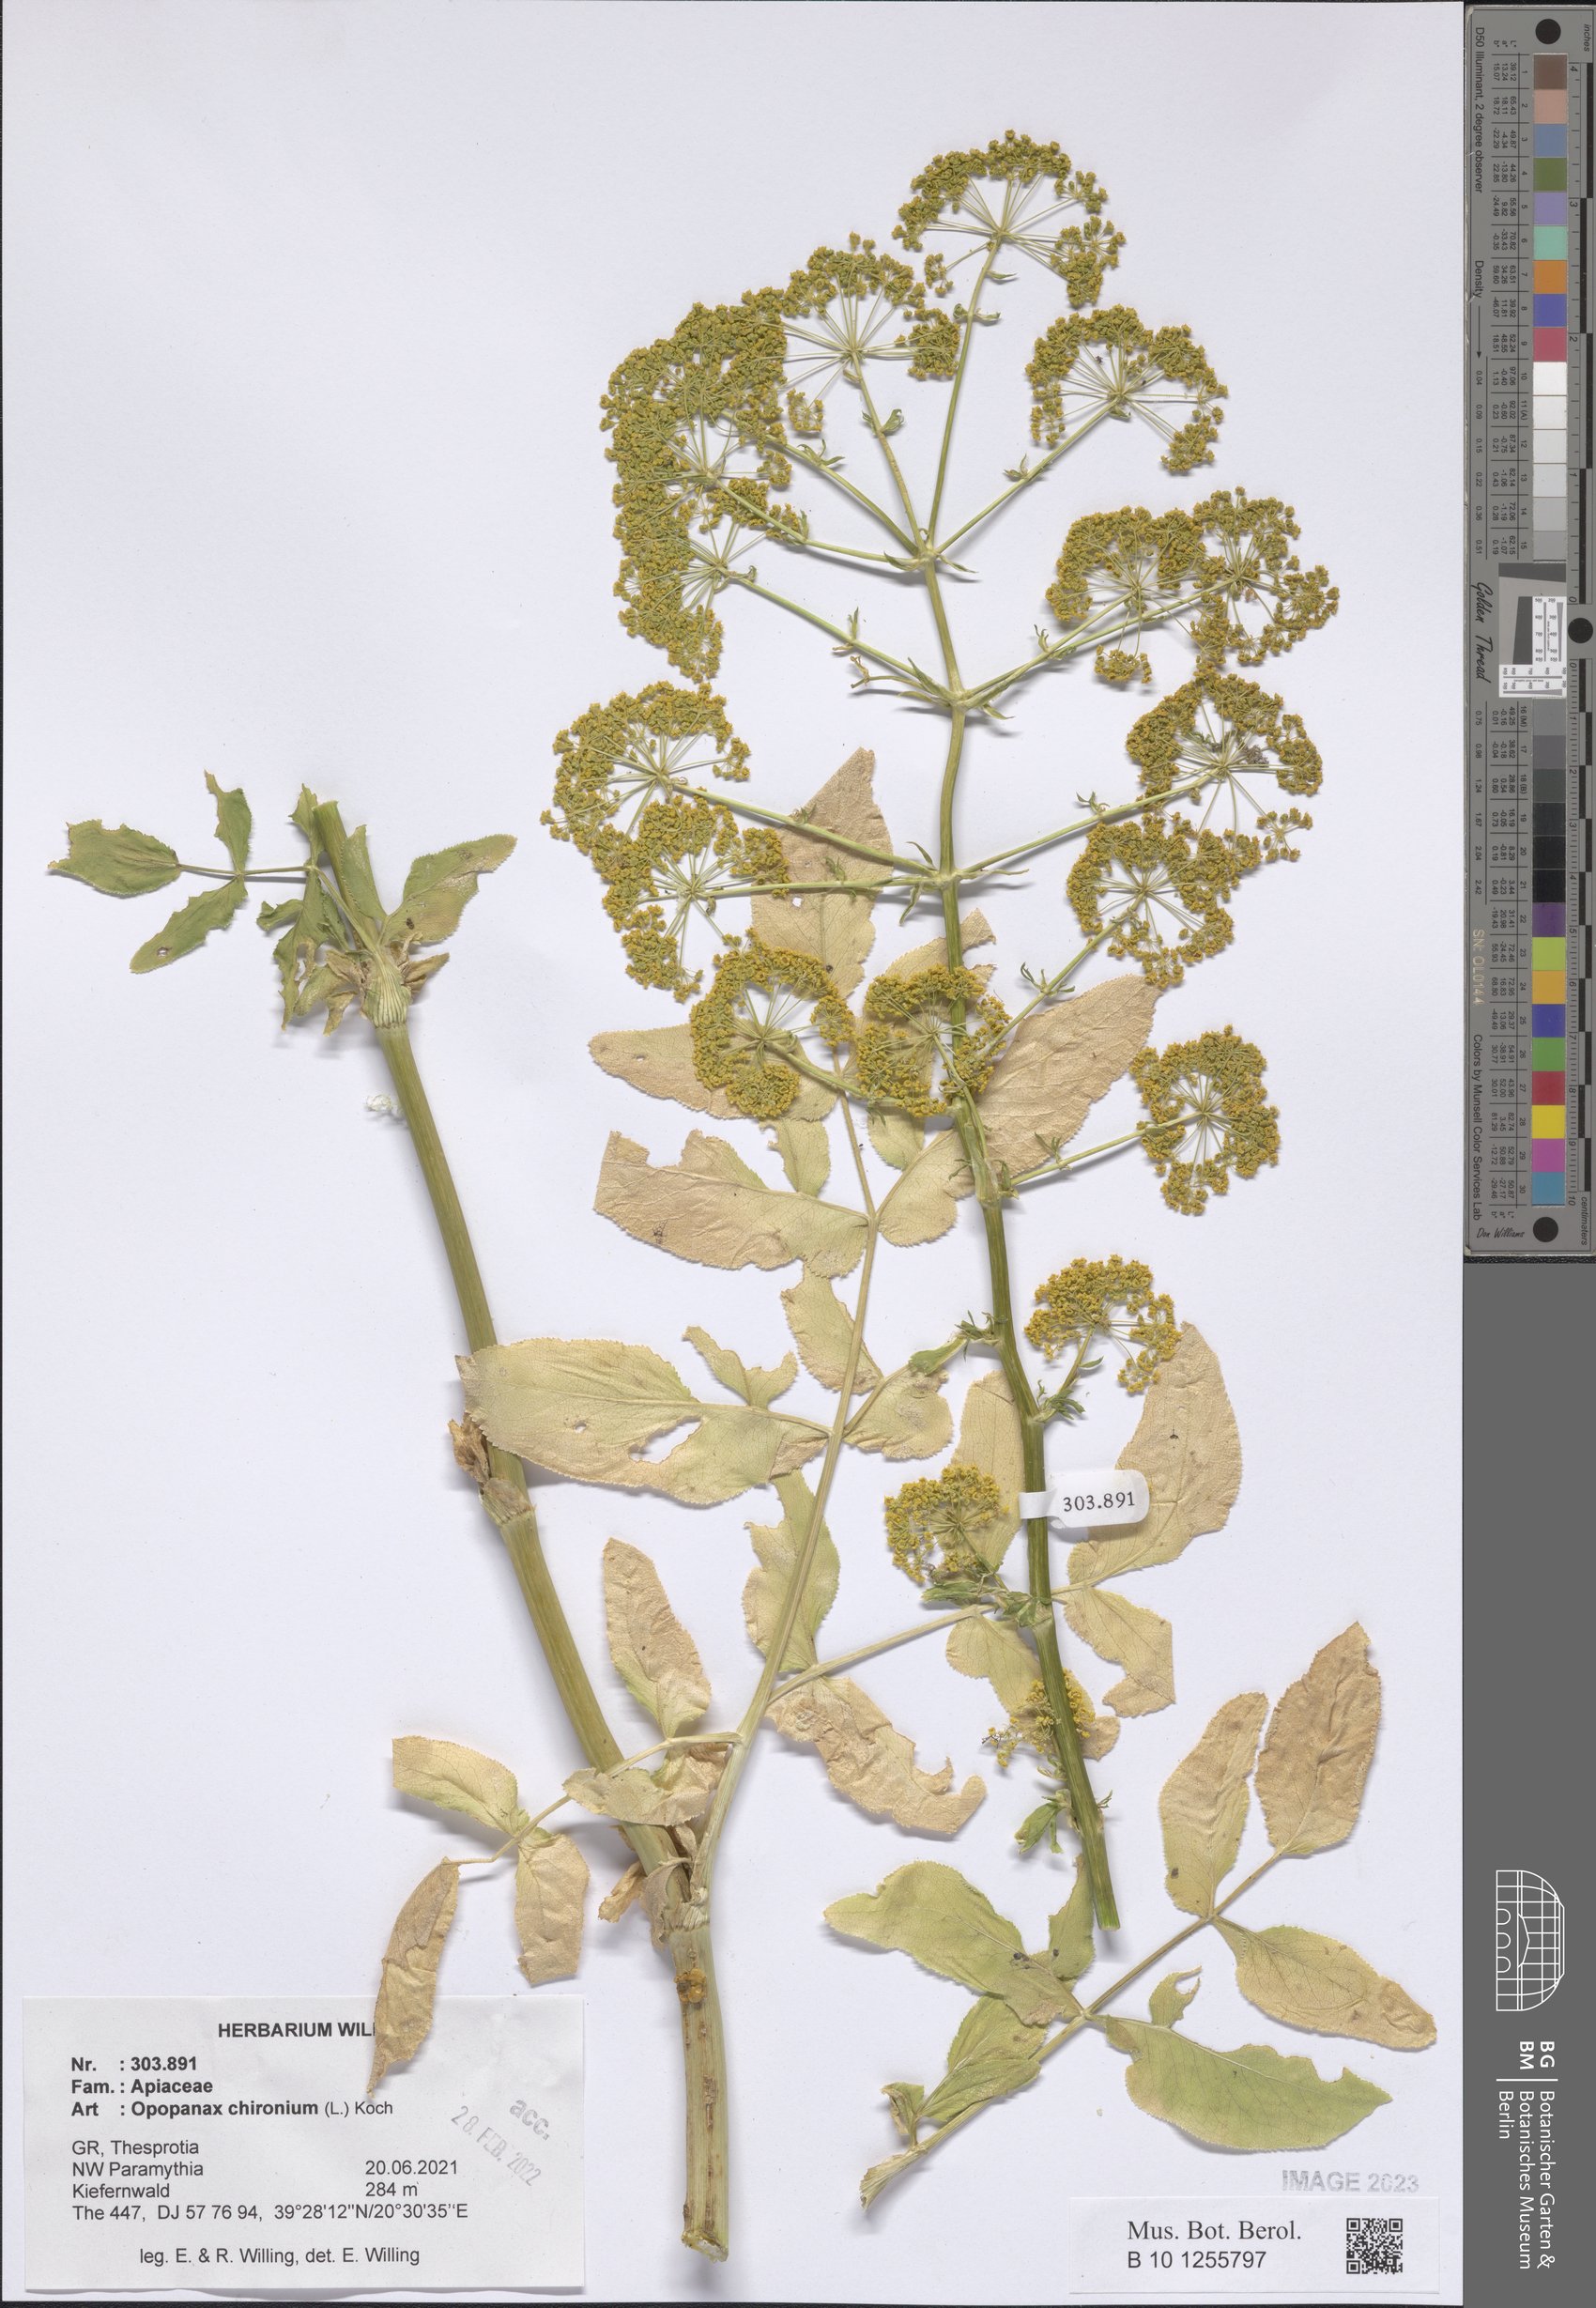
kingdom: Plantae
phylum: Tracheophyta
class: Magnoliopsida
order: Apiales
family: Apiaceae
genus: Opopanax
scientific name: Opopanax chironium
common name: Hercules-all-heal
